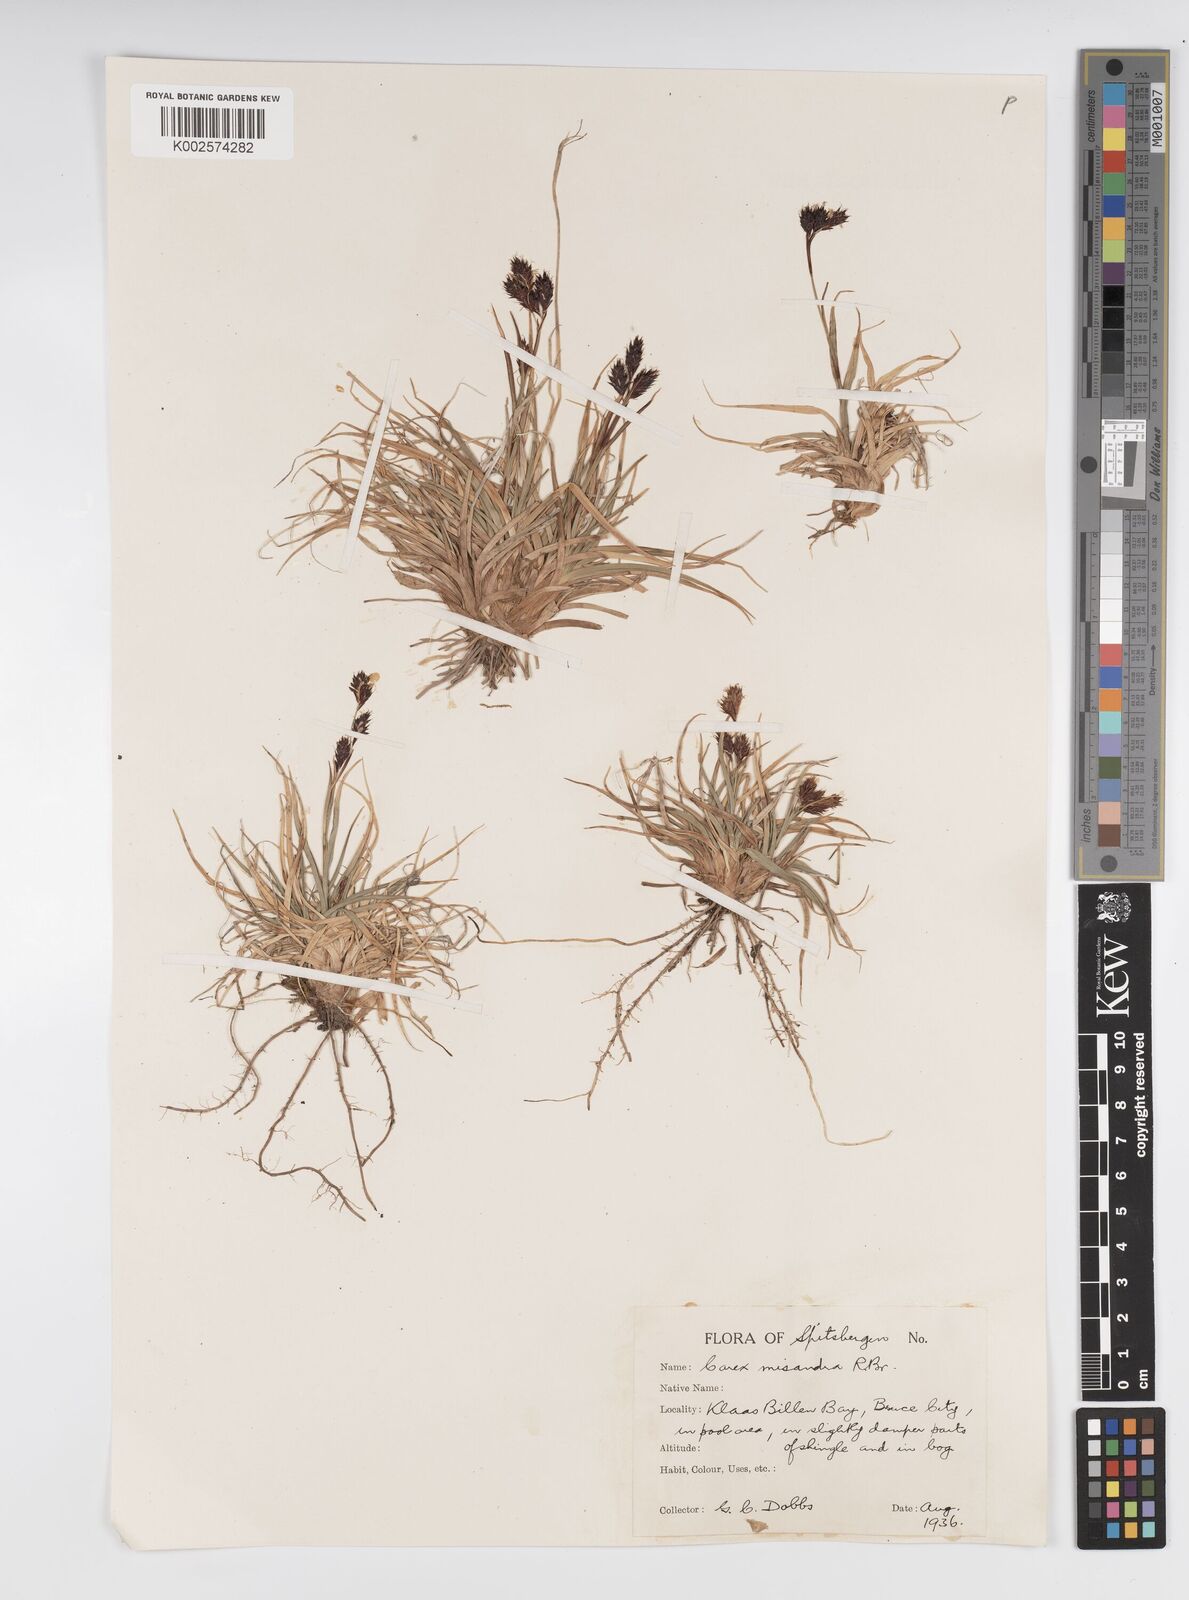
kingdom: Plantae
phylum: Tracheophyta
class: Liliopsida
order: Poales
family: Cyperaceae
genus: Carex
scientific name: Carex fuliginosa
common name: Few-flowered sedge
